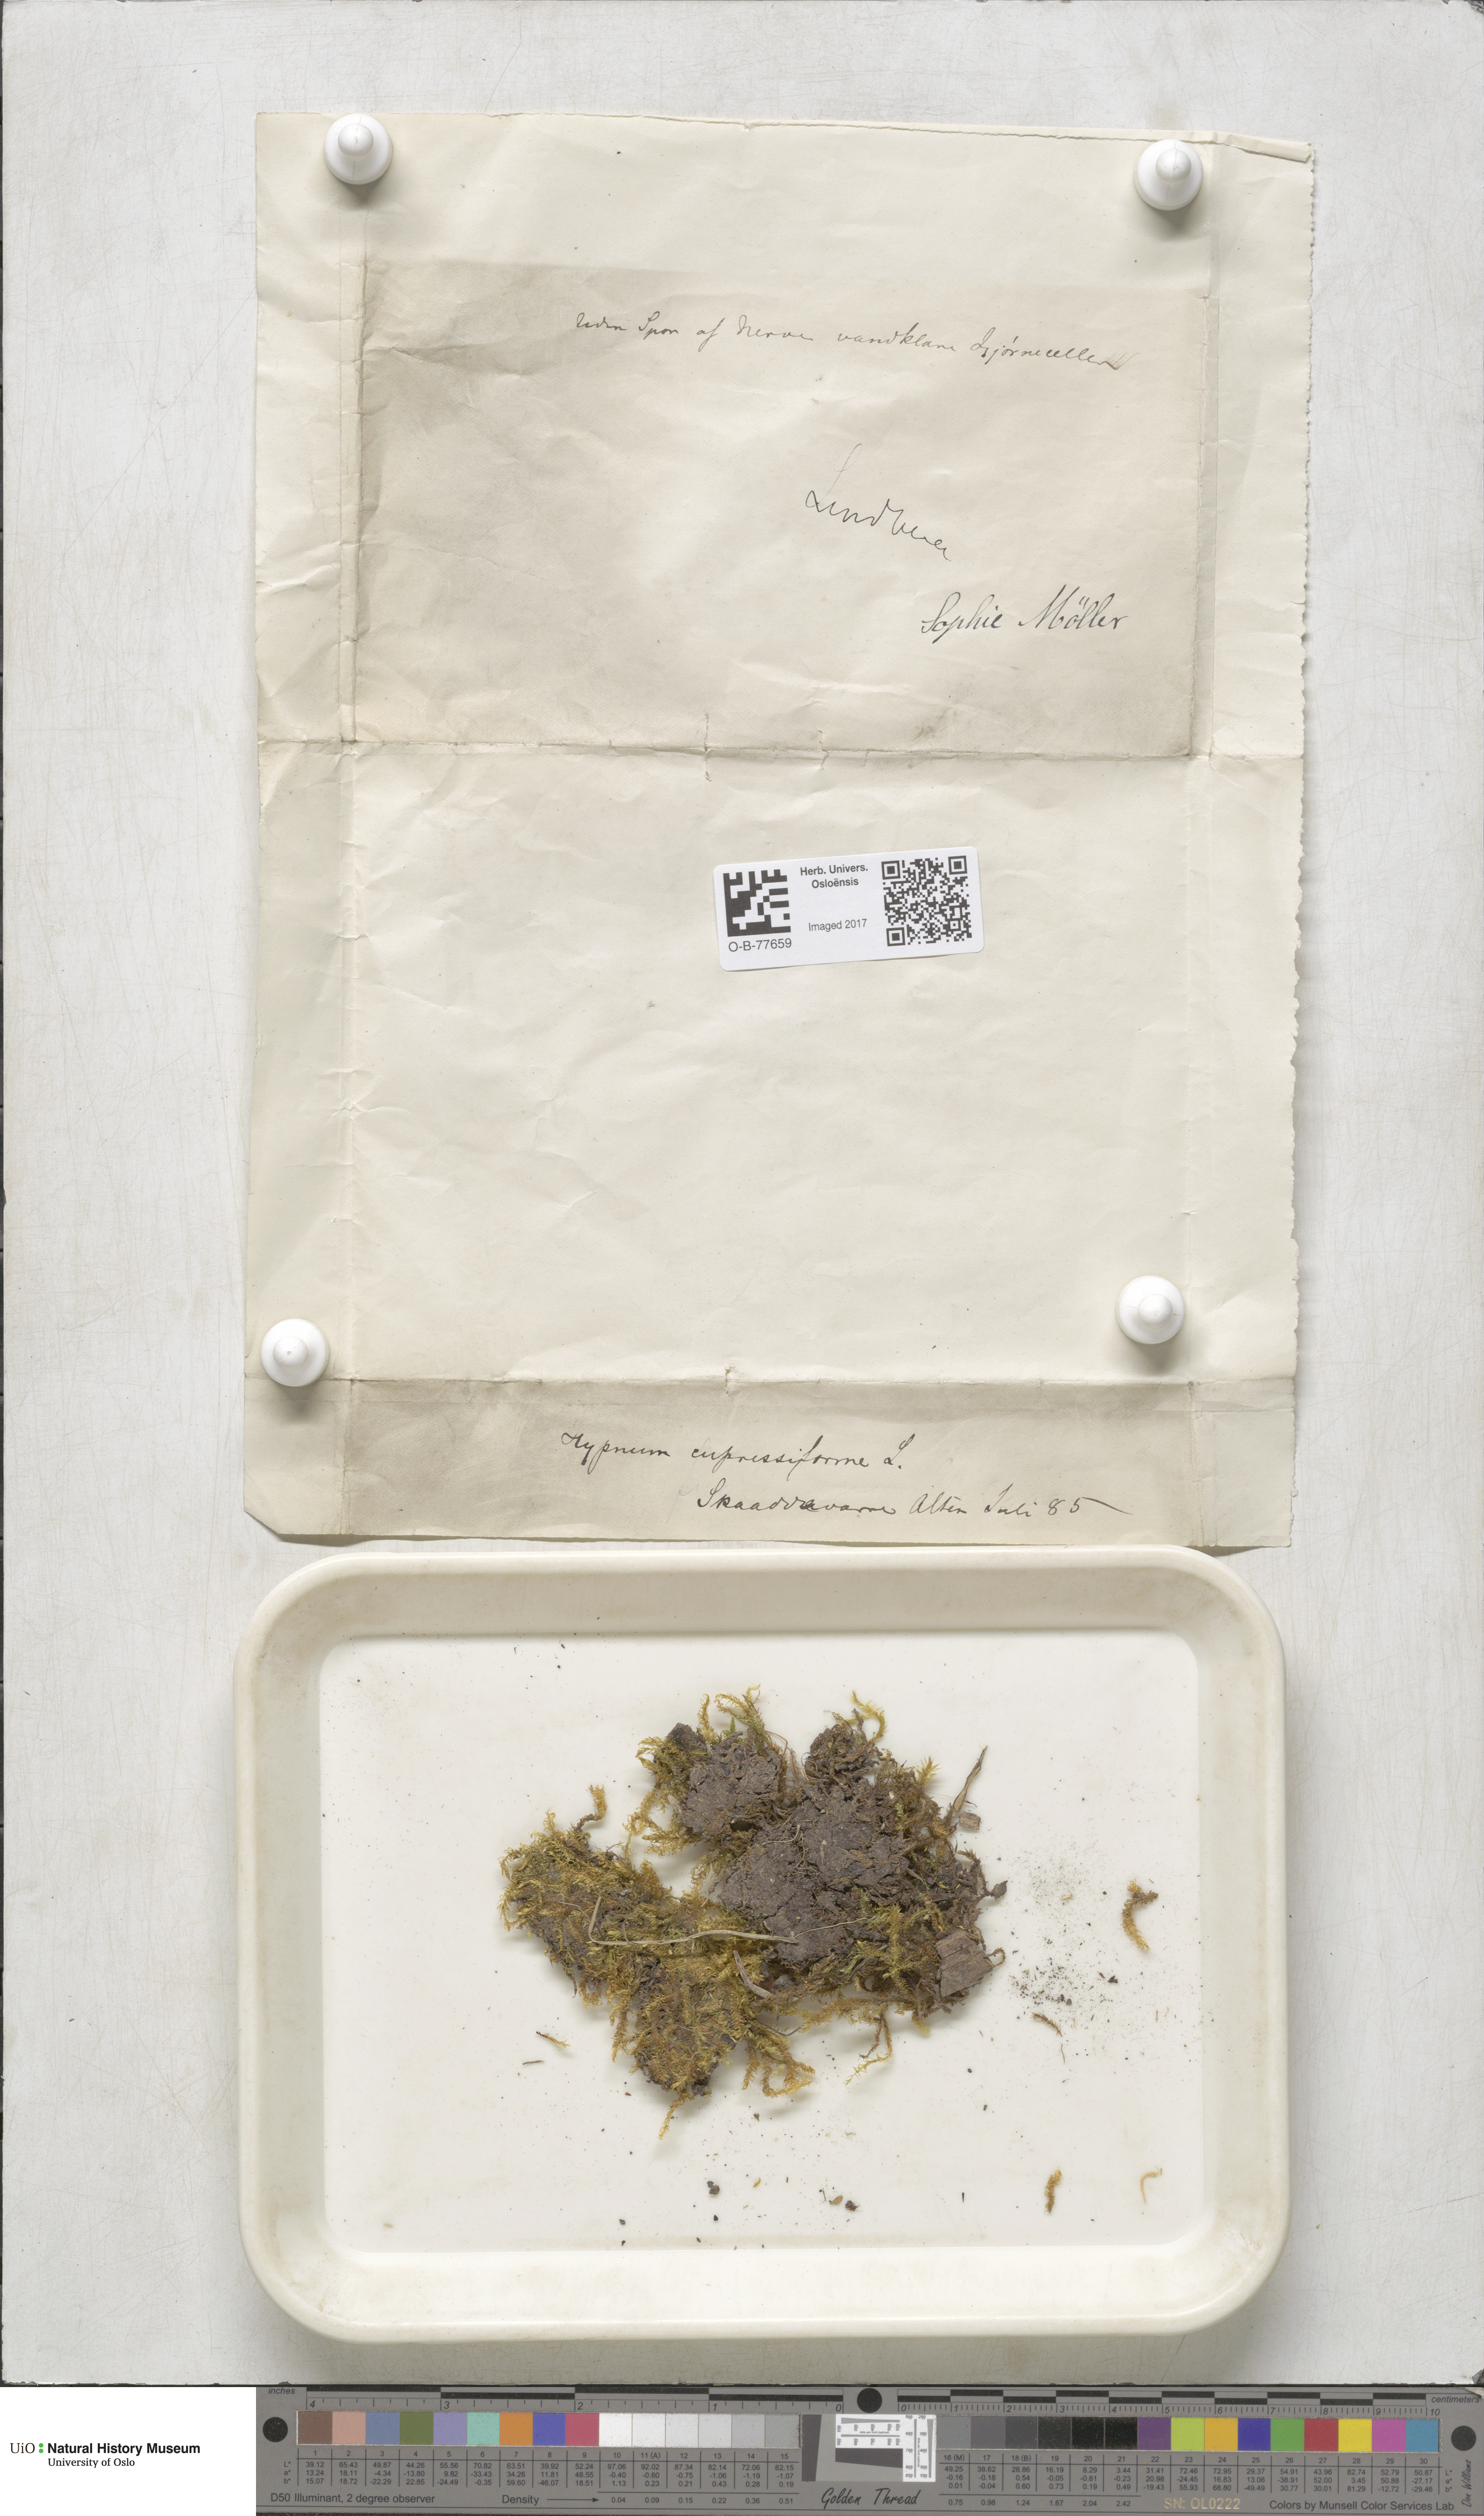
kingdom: Plantae
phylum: Bryophyta
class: Bryopsida
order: Hypnales
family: Hypnaceae
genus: Hypnum
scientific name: Hypnum cupressiforme
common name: Cypress-leaved plait-moss
